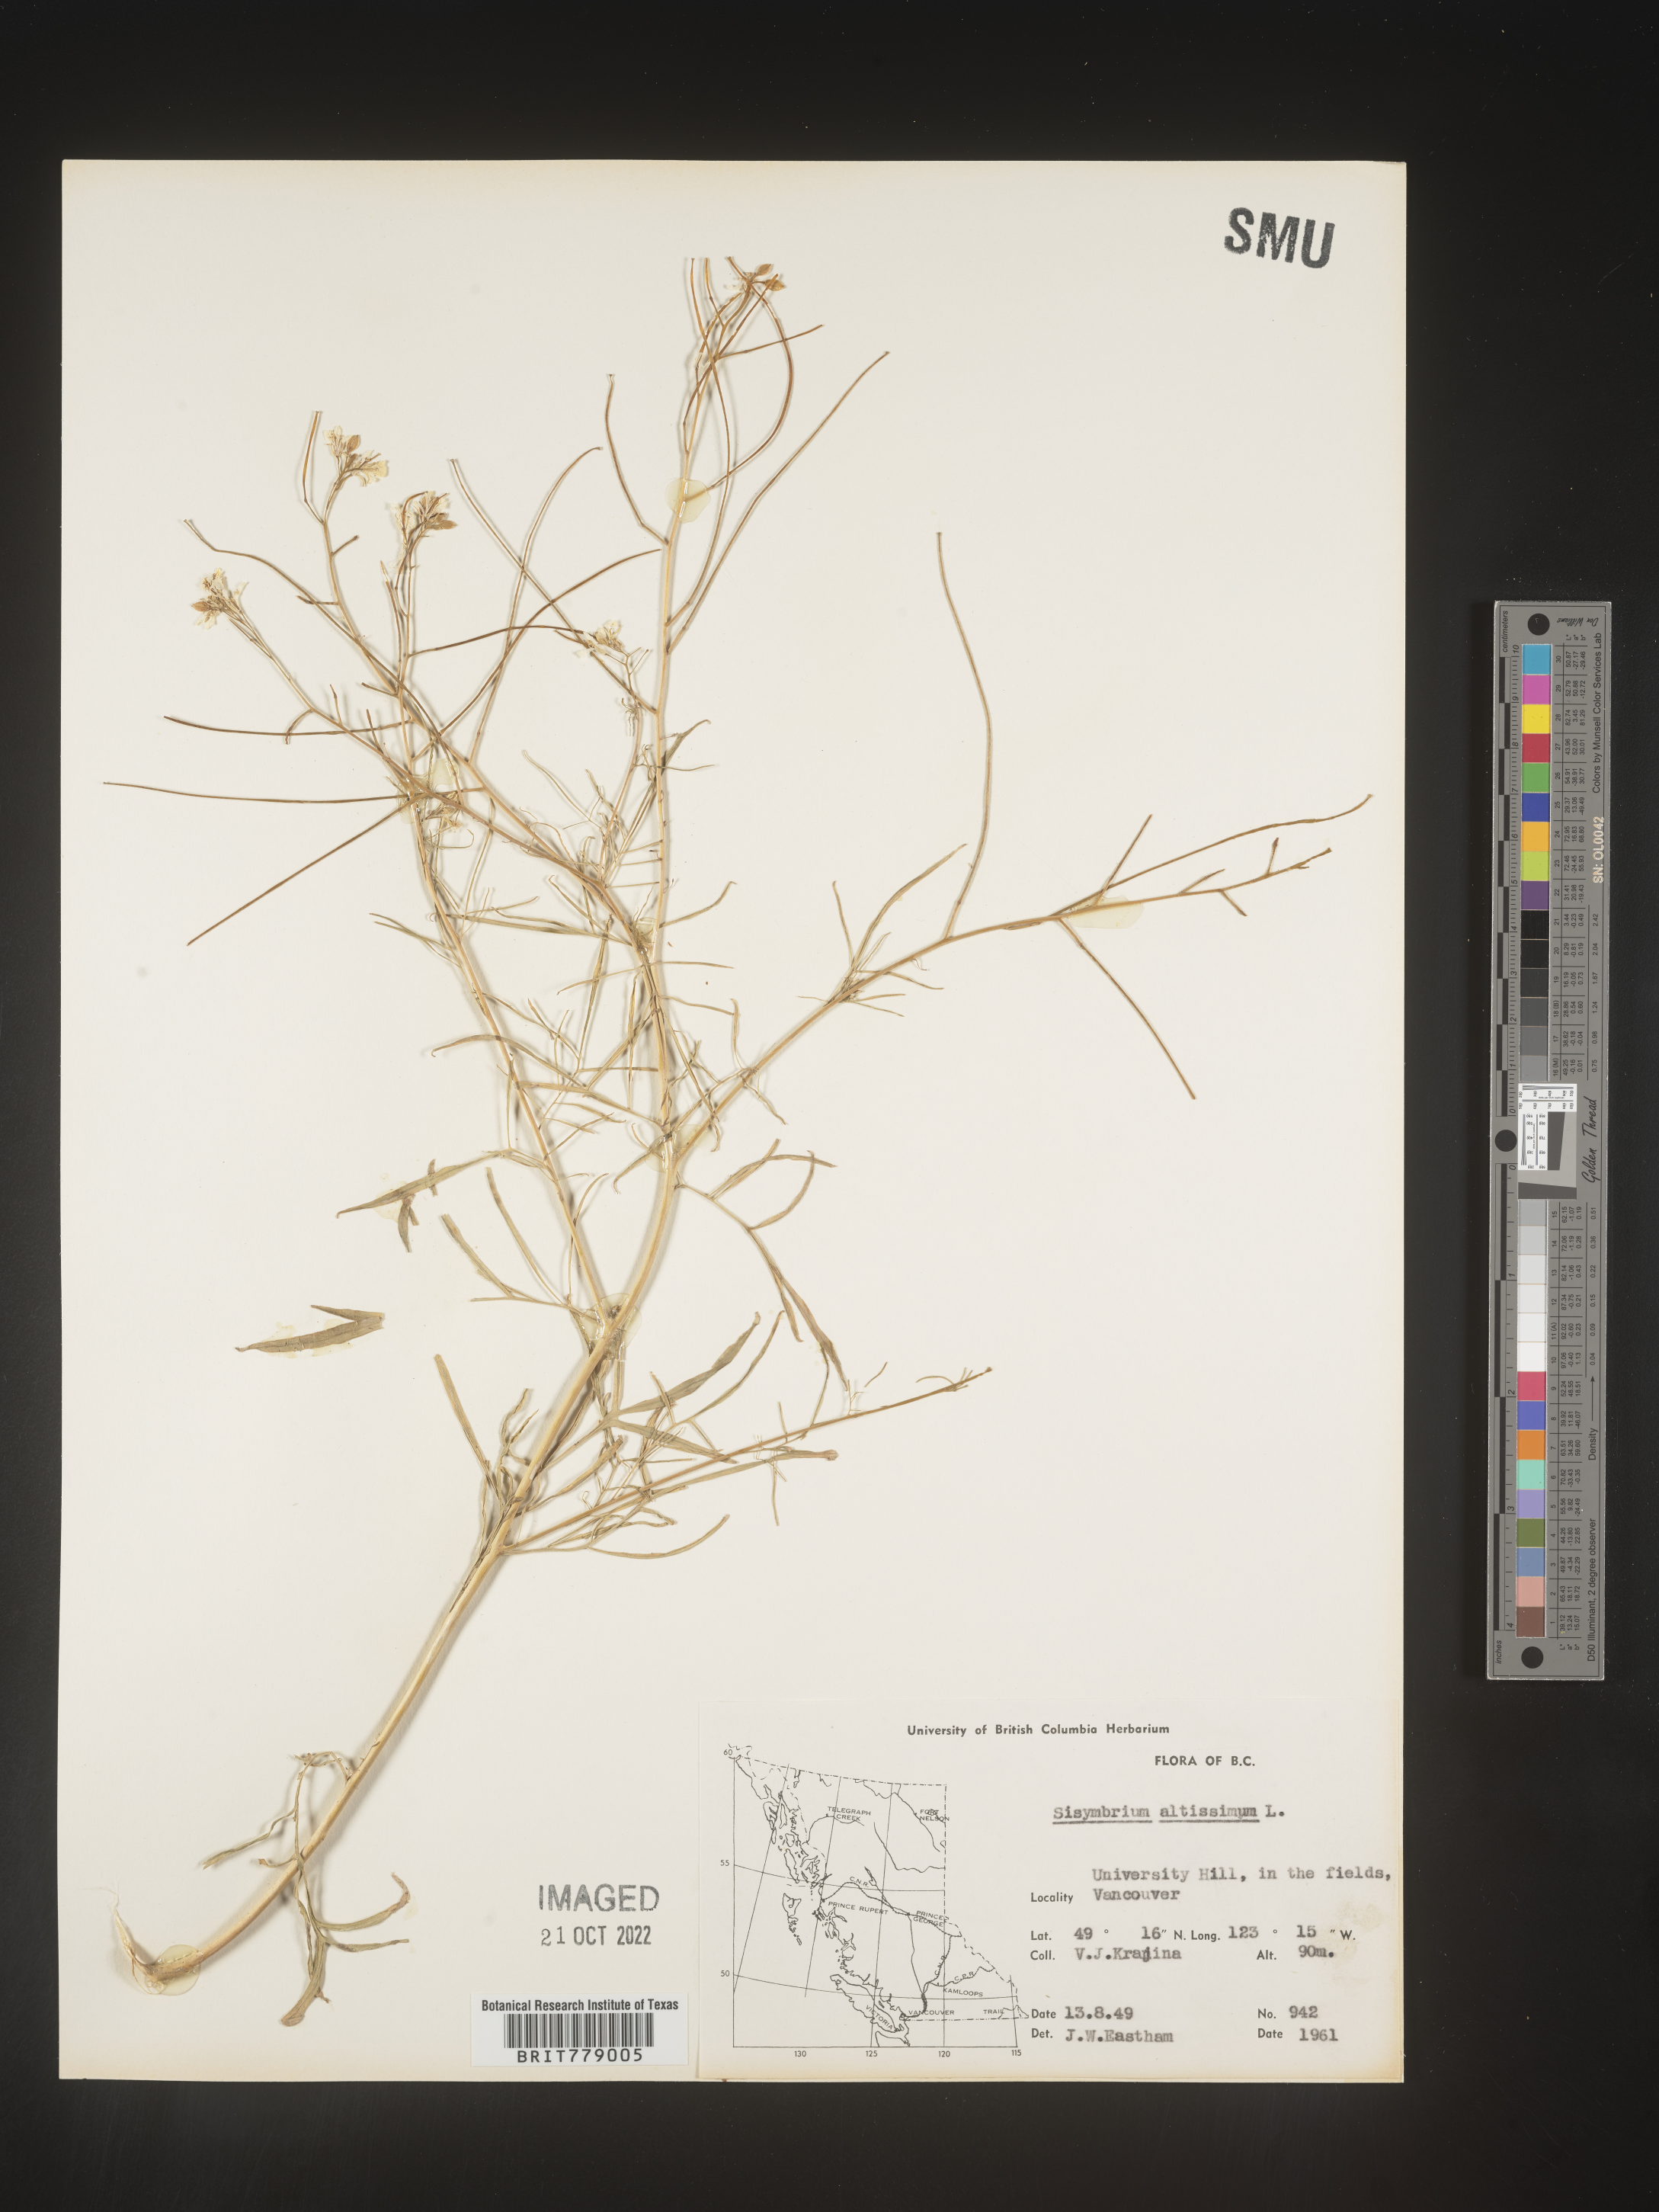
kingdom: Plantae
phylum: Tracheophyta
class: Magnoliopsida
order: Brassicales
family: Brassicaceae
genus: Sisymbrium
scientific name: Sisymbrium altissimum
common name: Tall rocket
